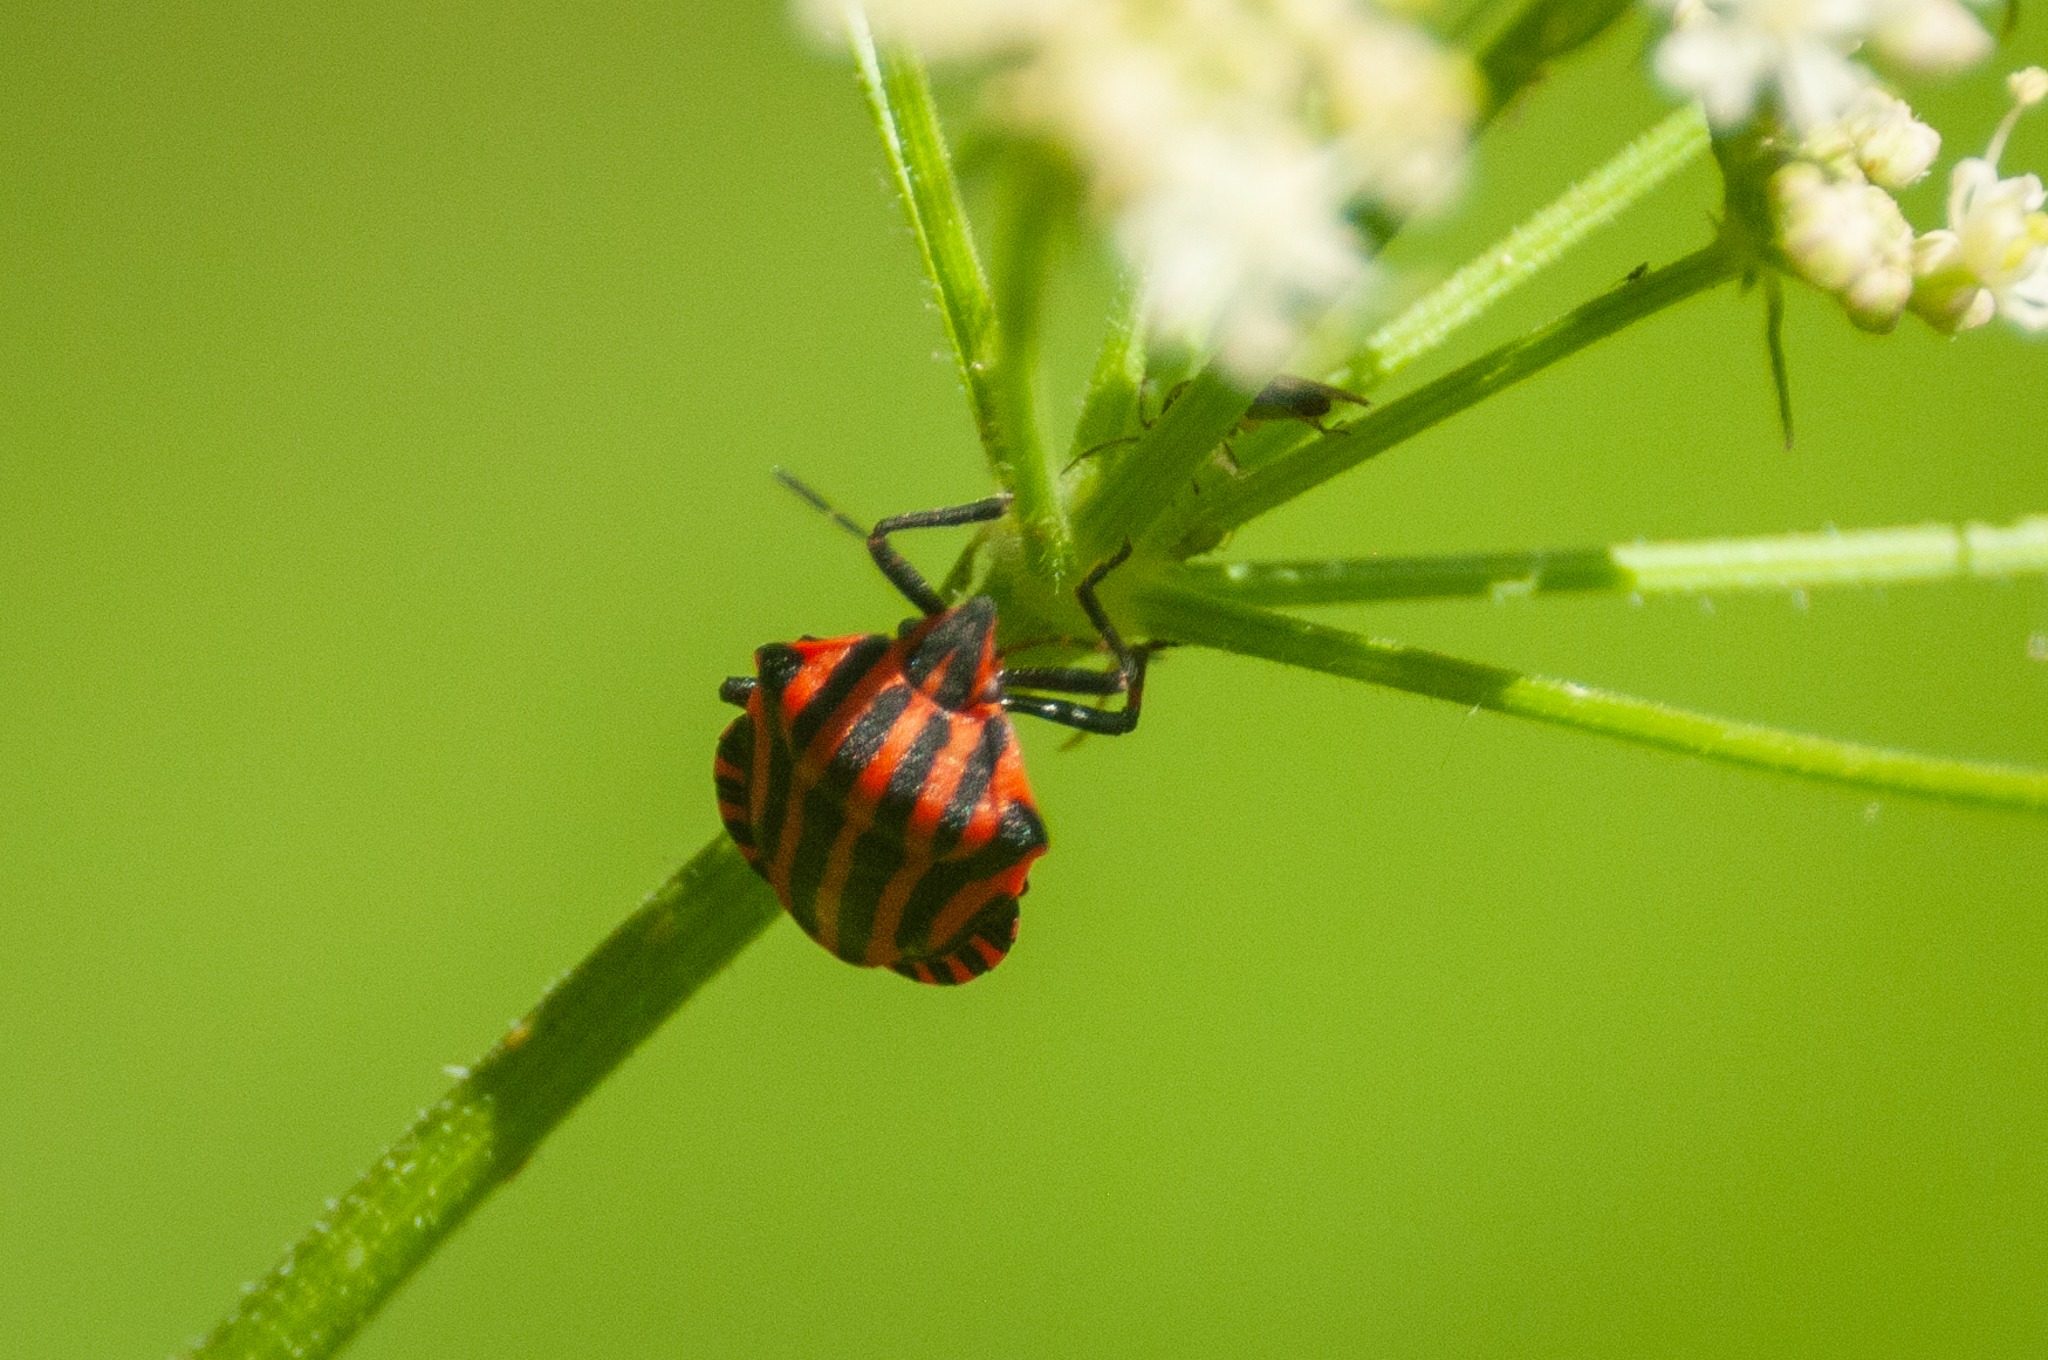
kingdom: Animalia
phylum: Arthropoda
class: Insecta
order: Hemiptera
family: Pentatomidae
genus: Graphosoma
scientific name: Graphosoma italicum
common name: Stribetæge
